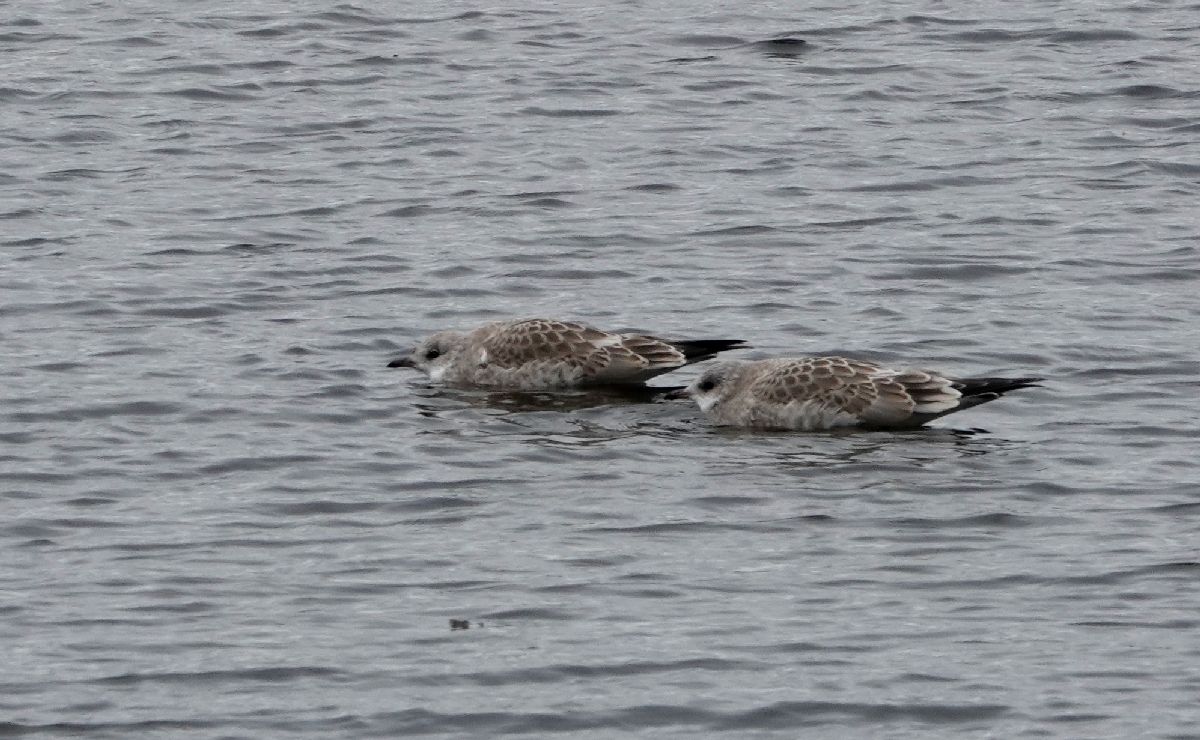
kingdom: Animalia
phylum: Chordata
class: Aves
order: Charadriiformes
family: Laridae
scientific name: Laridae
